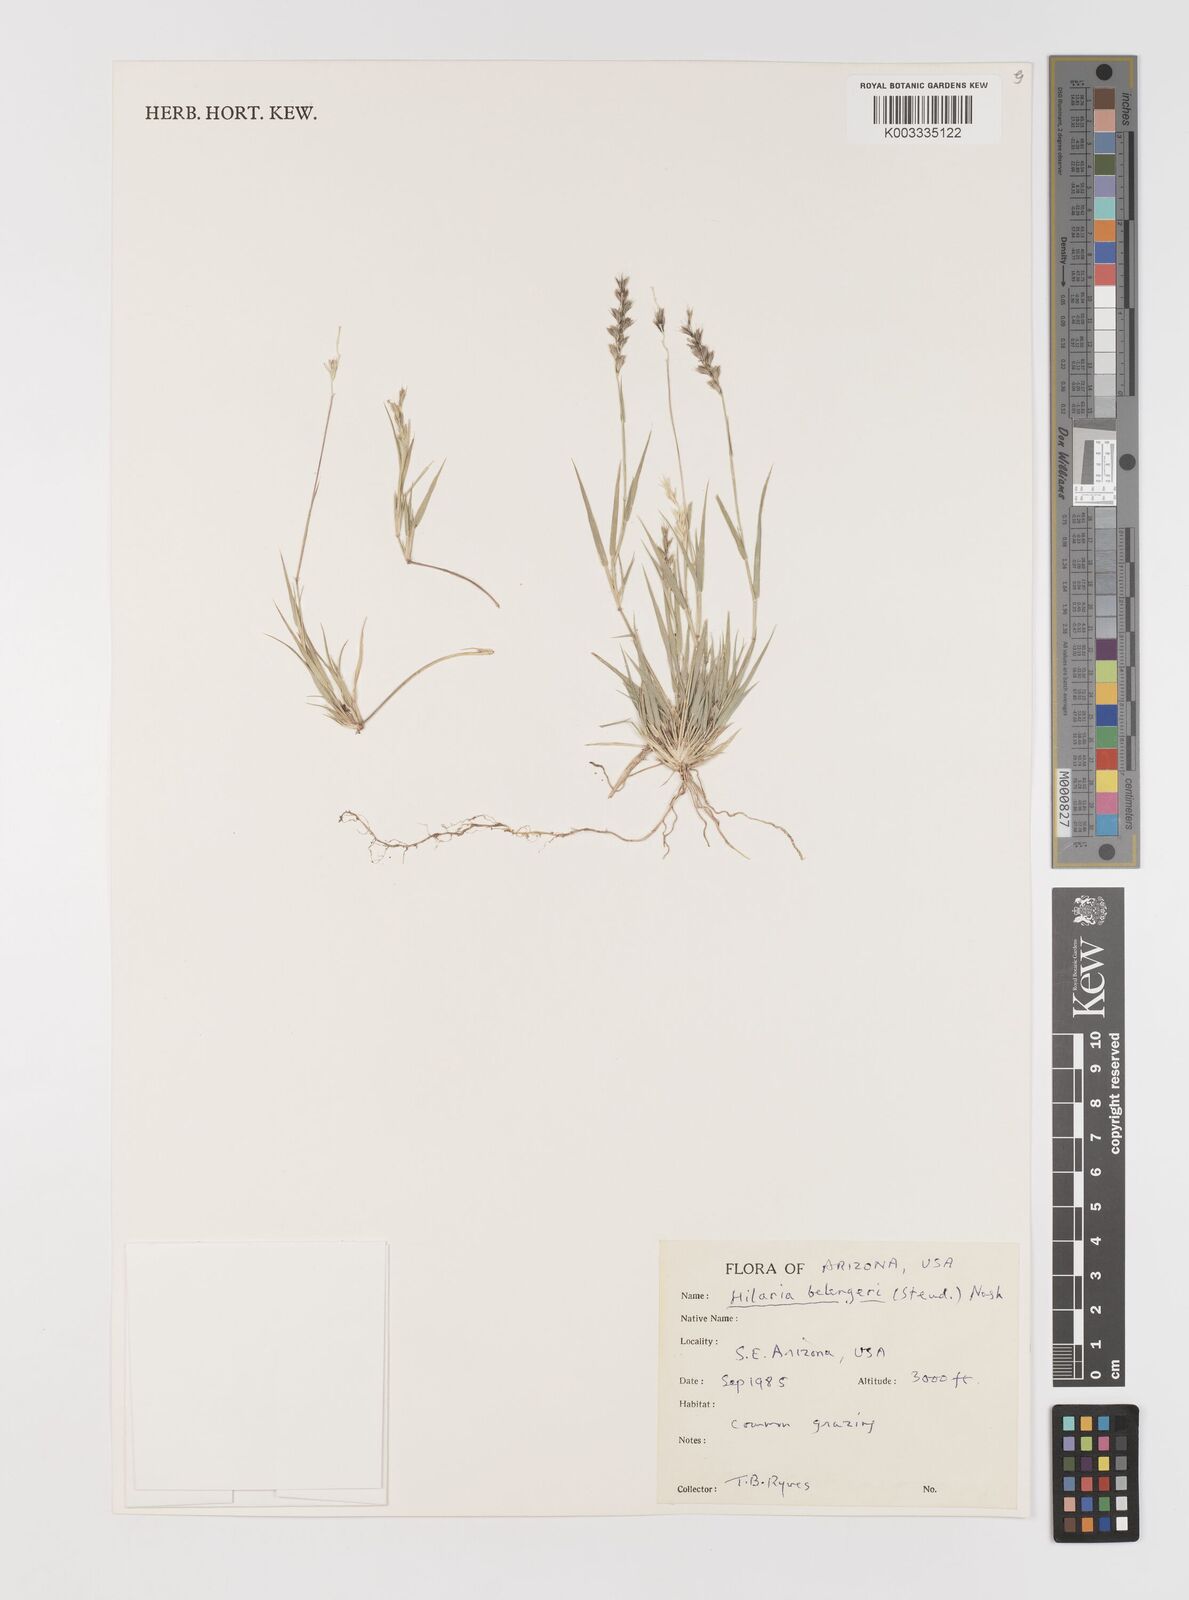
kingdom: Plantae
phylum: Tracheophyta
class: Liliopsida
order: Poales
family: Poaceae
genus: Hilaria
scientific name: Hilaria belangeri
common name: Curly-mesquite
